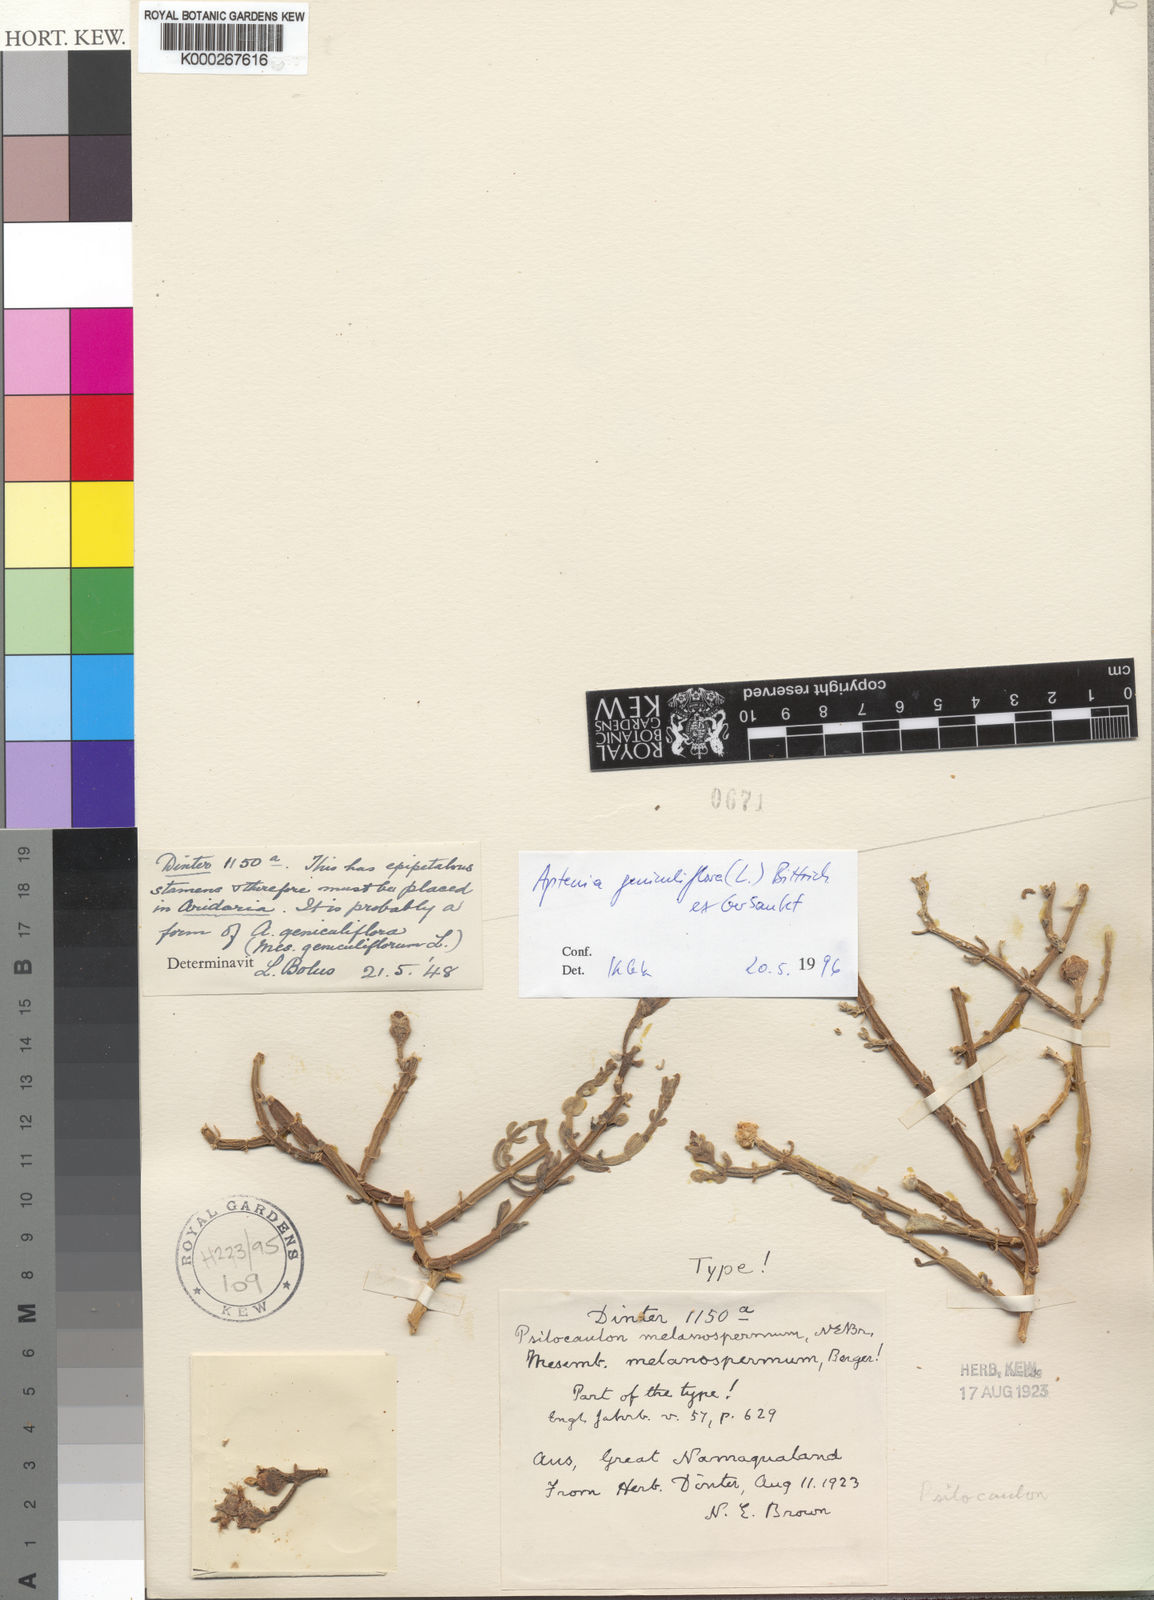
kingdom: Plantae
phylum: Tracheophyta
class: Magnoliopsida
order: Caryophyllales
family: Aizoaceae
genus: Mesembryanthemum
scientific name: Mesembryanthemum geniculiflorum
